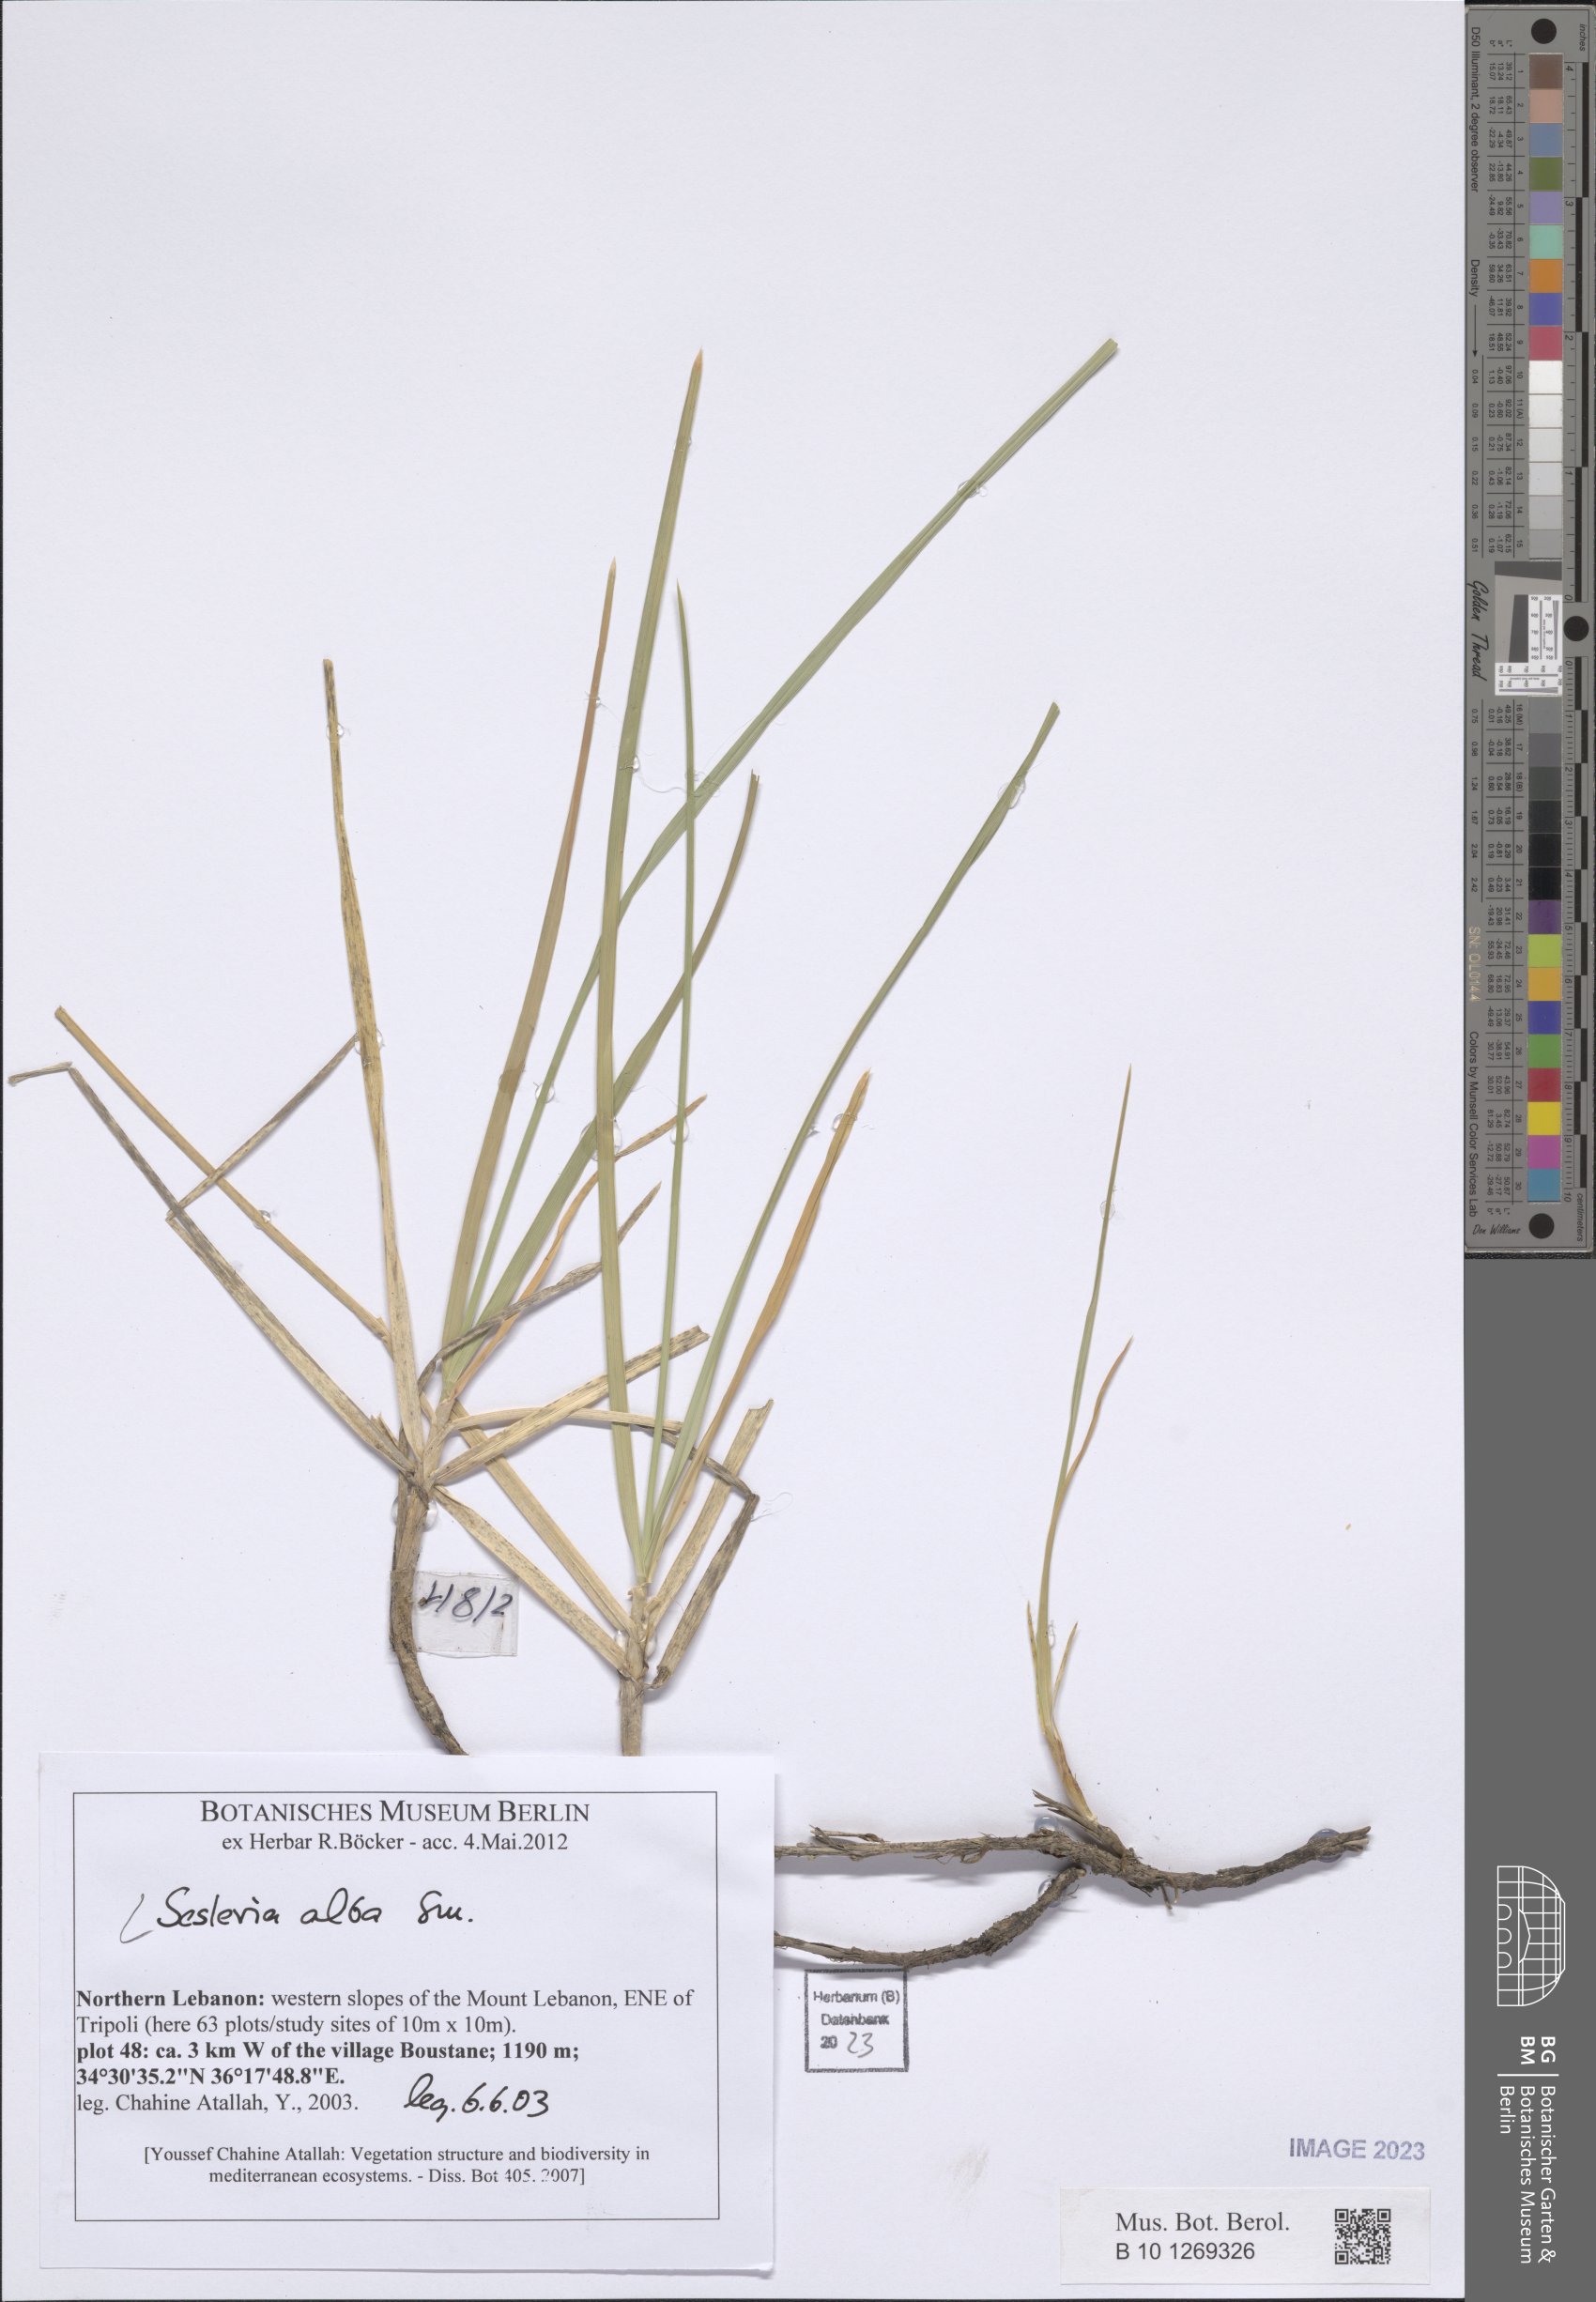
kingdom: Plantae
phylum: Tracheophyta
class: Liliopsida
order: Poales
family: Poaceae
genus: Sesleria
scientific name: Sesleria alba
